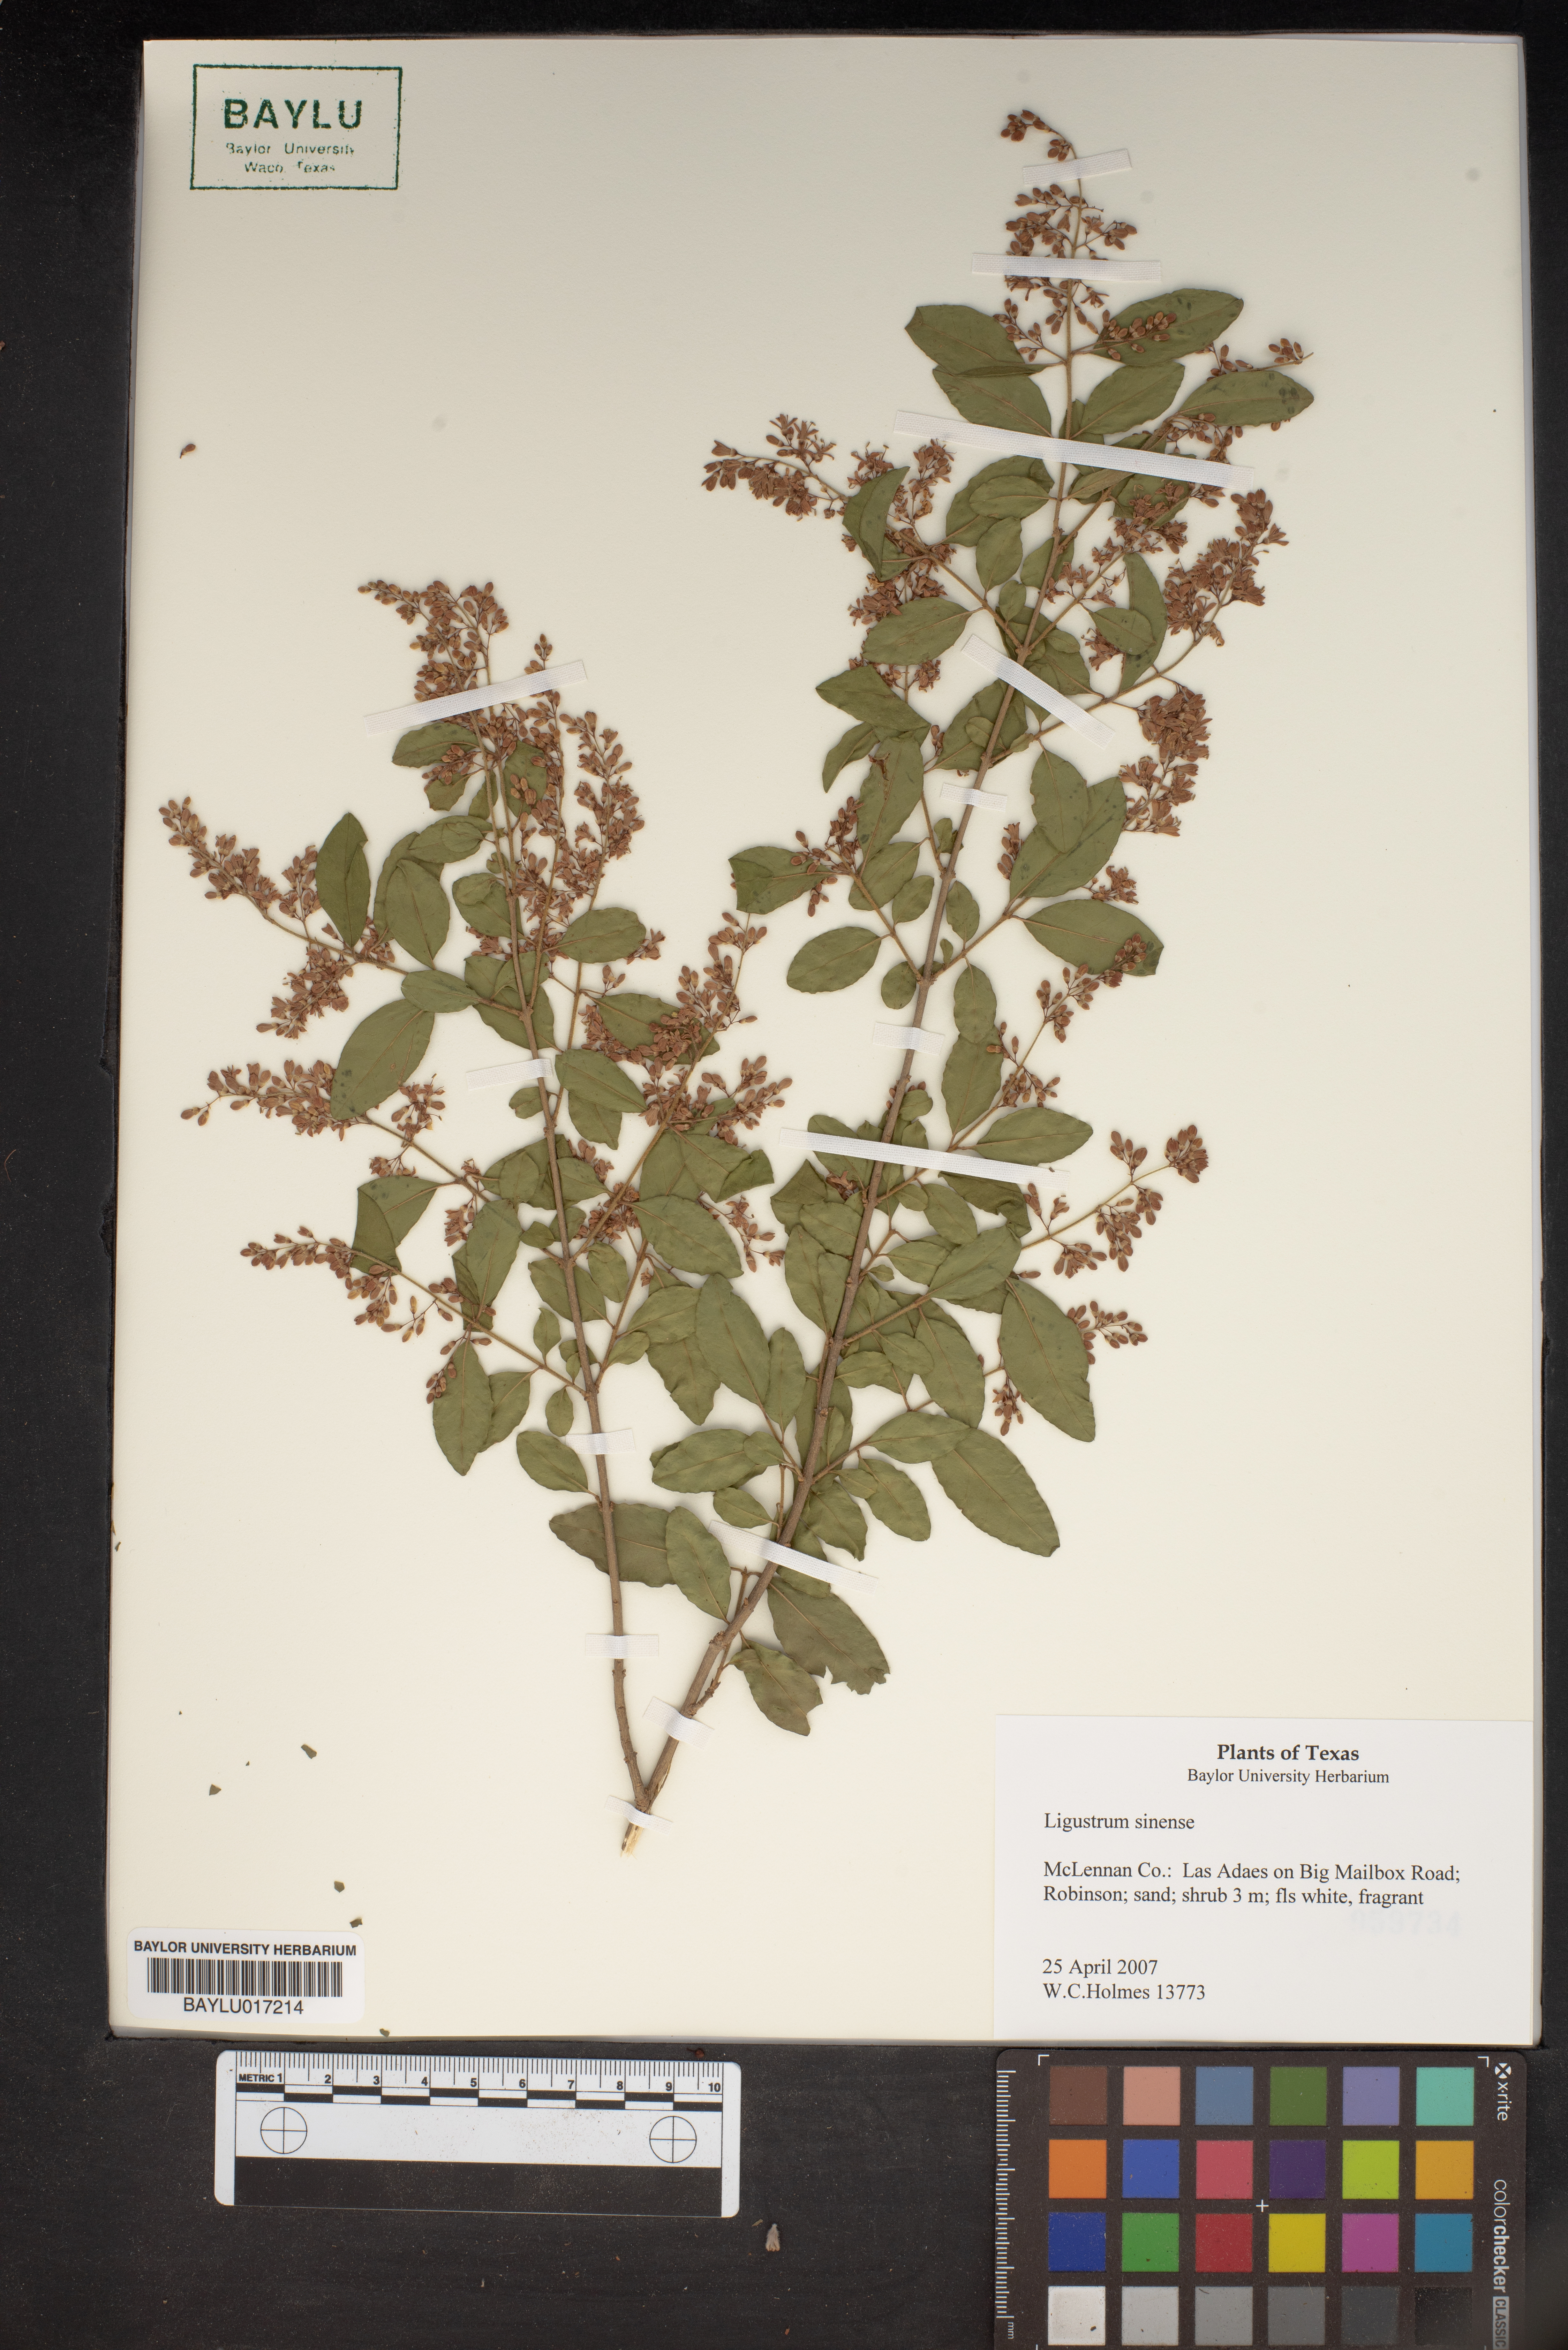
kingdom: Plantae
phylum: Tracheophyta
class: Magnoliopsida
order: Lamiales
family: Oleaceae
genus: Ligustrum
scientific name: Ligustrum sinense
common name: Chinese privet
